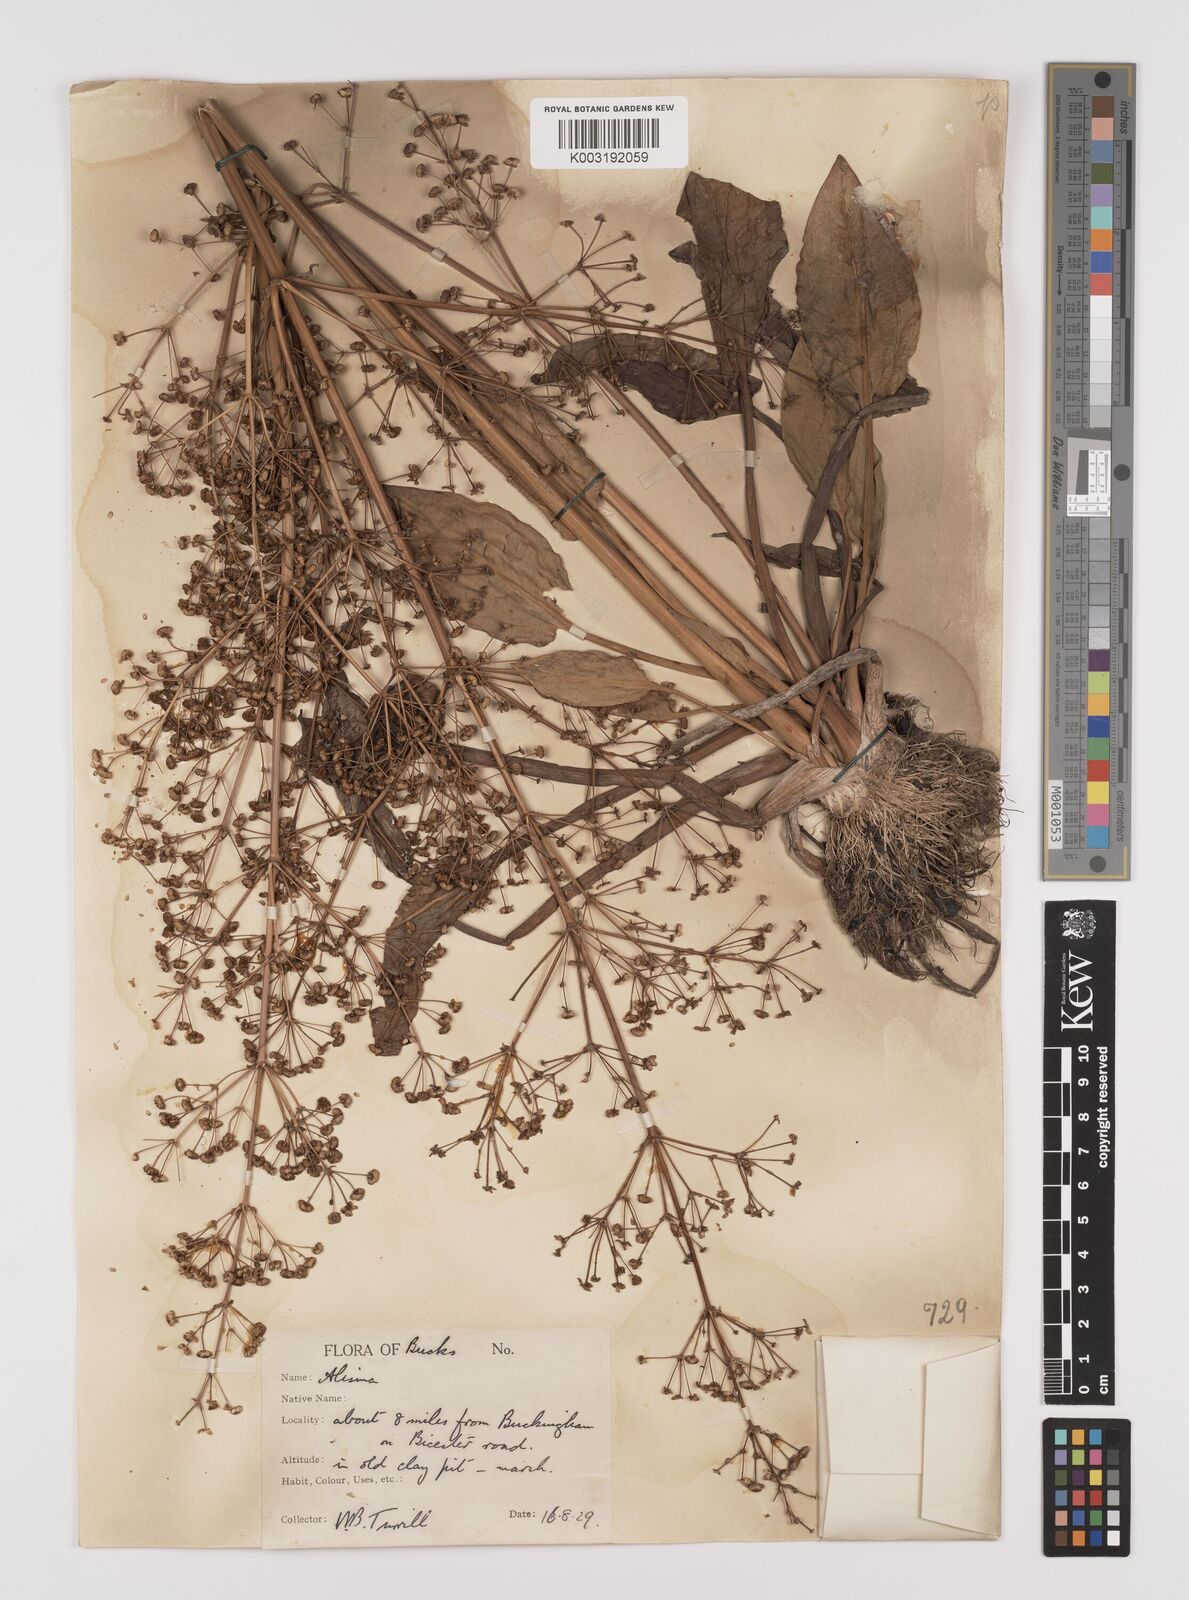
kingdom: Plantae
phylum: Tracheophyta
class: Liliopsida
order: Alismatales
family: Alismataceae
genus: Alisma
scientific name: Alisma plantago-aquatica
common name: Water-plantain
